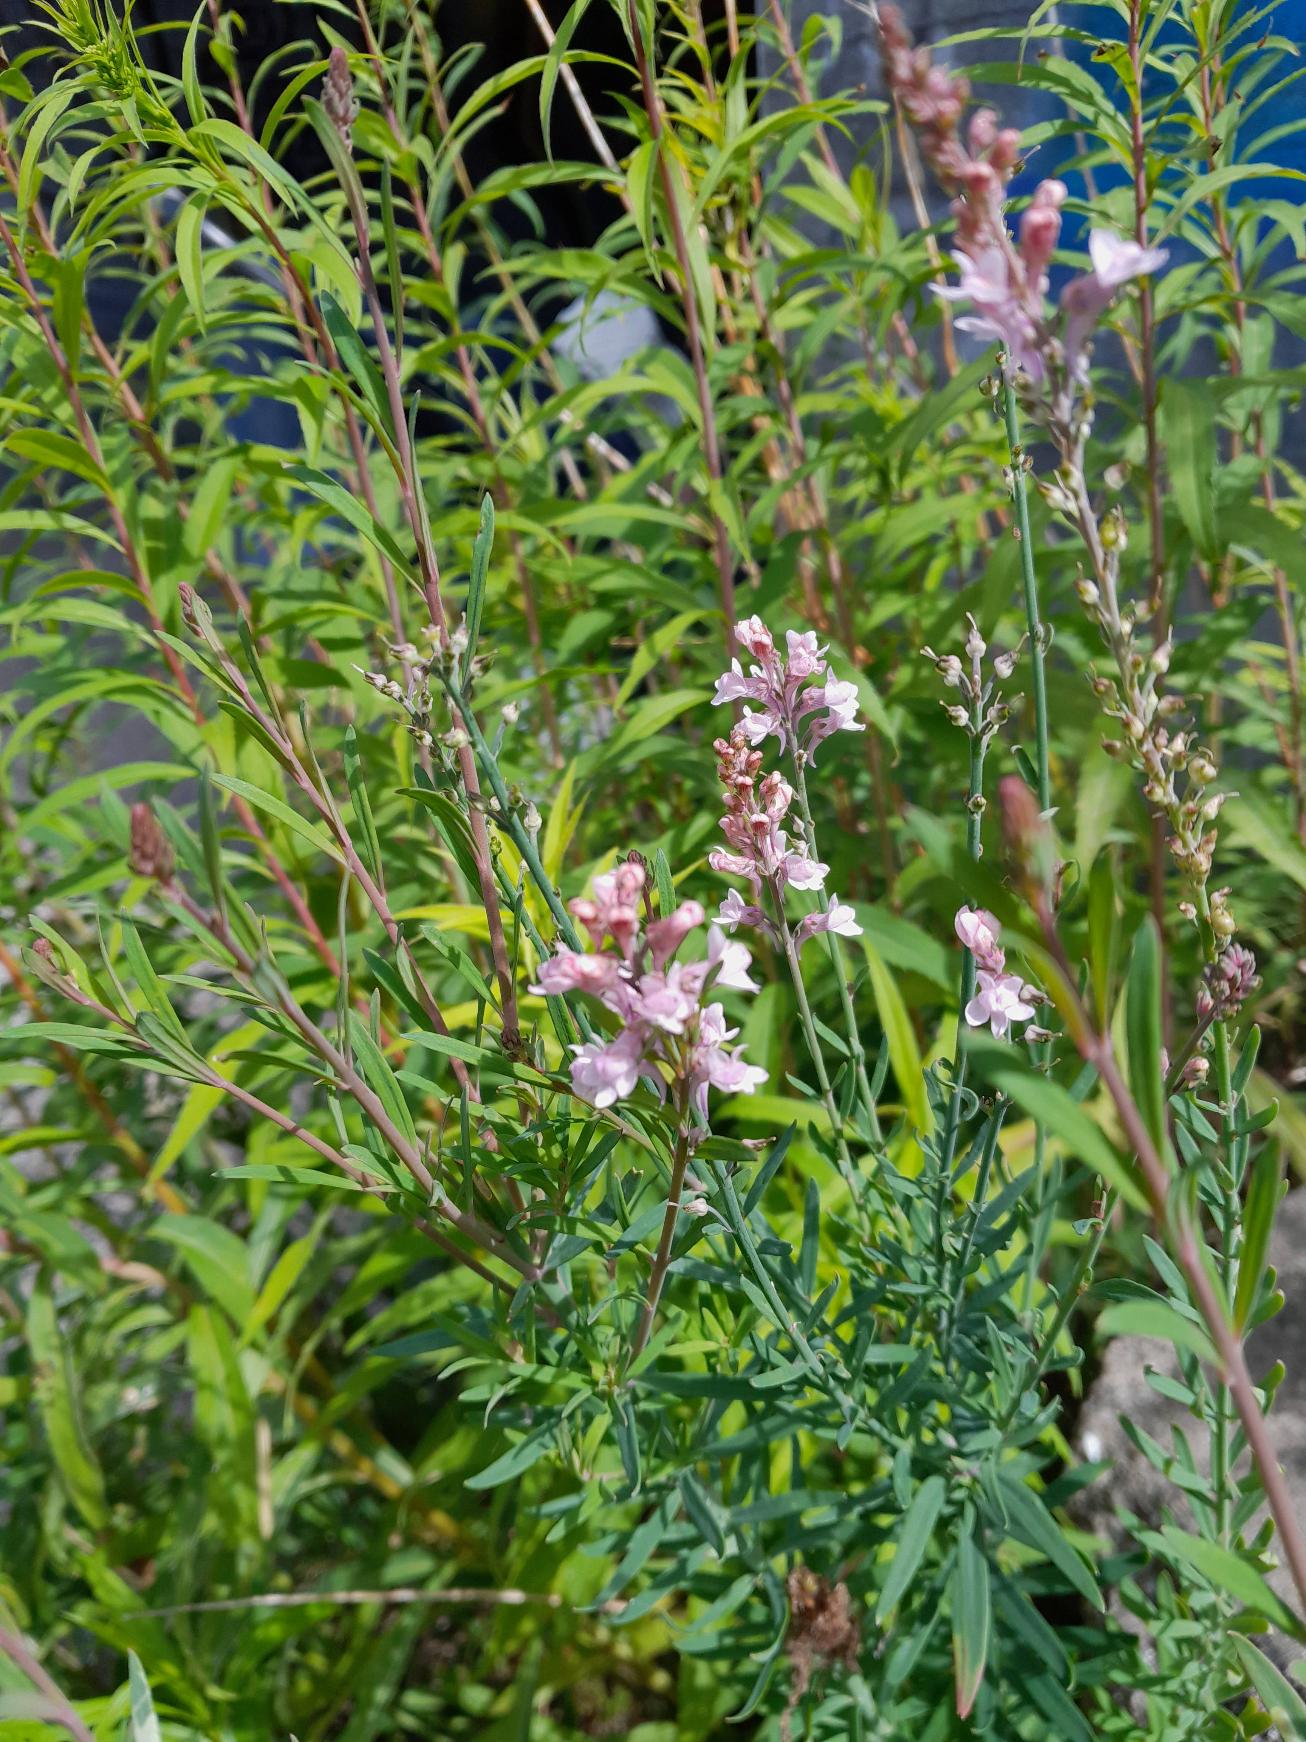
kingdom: Plantae
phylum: Tracheophyta
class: Magnoliopsida
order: Lamiales
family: Plantaginaceae
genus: Linaria
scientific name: Linaria purpurea
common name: Purpur-torskemund
